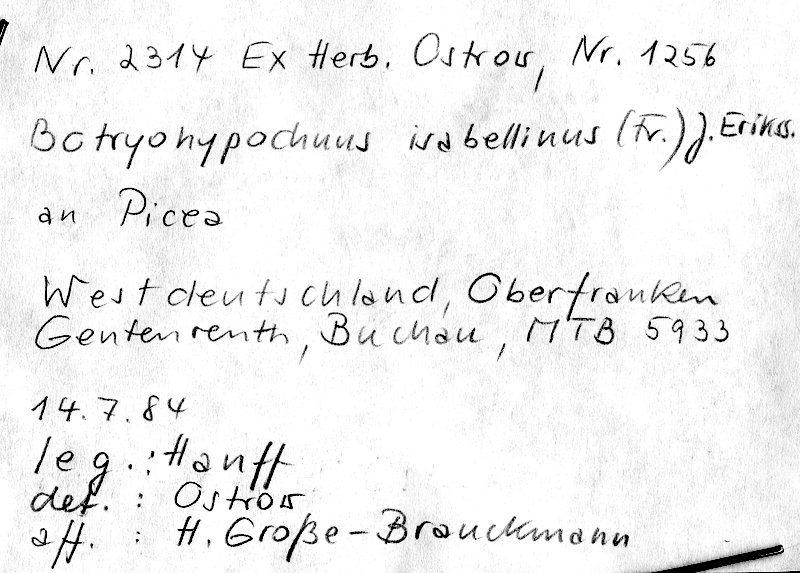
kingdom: Fungi
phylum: Basidiomycota
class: Agaricomycetes
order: Cantharellales
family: Botryobasidiaceae
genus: Botryobasidium
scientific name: Botryobasidium isabellinum
